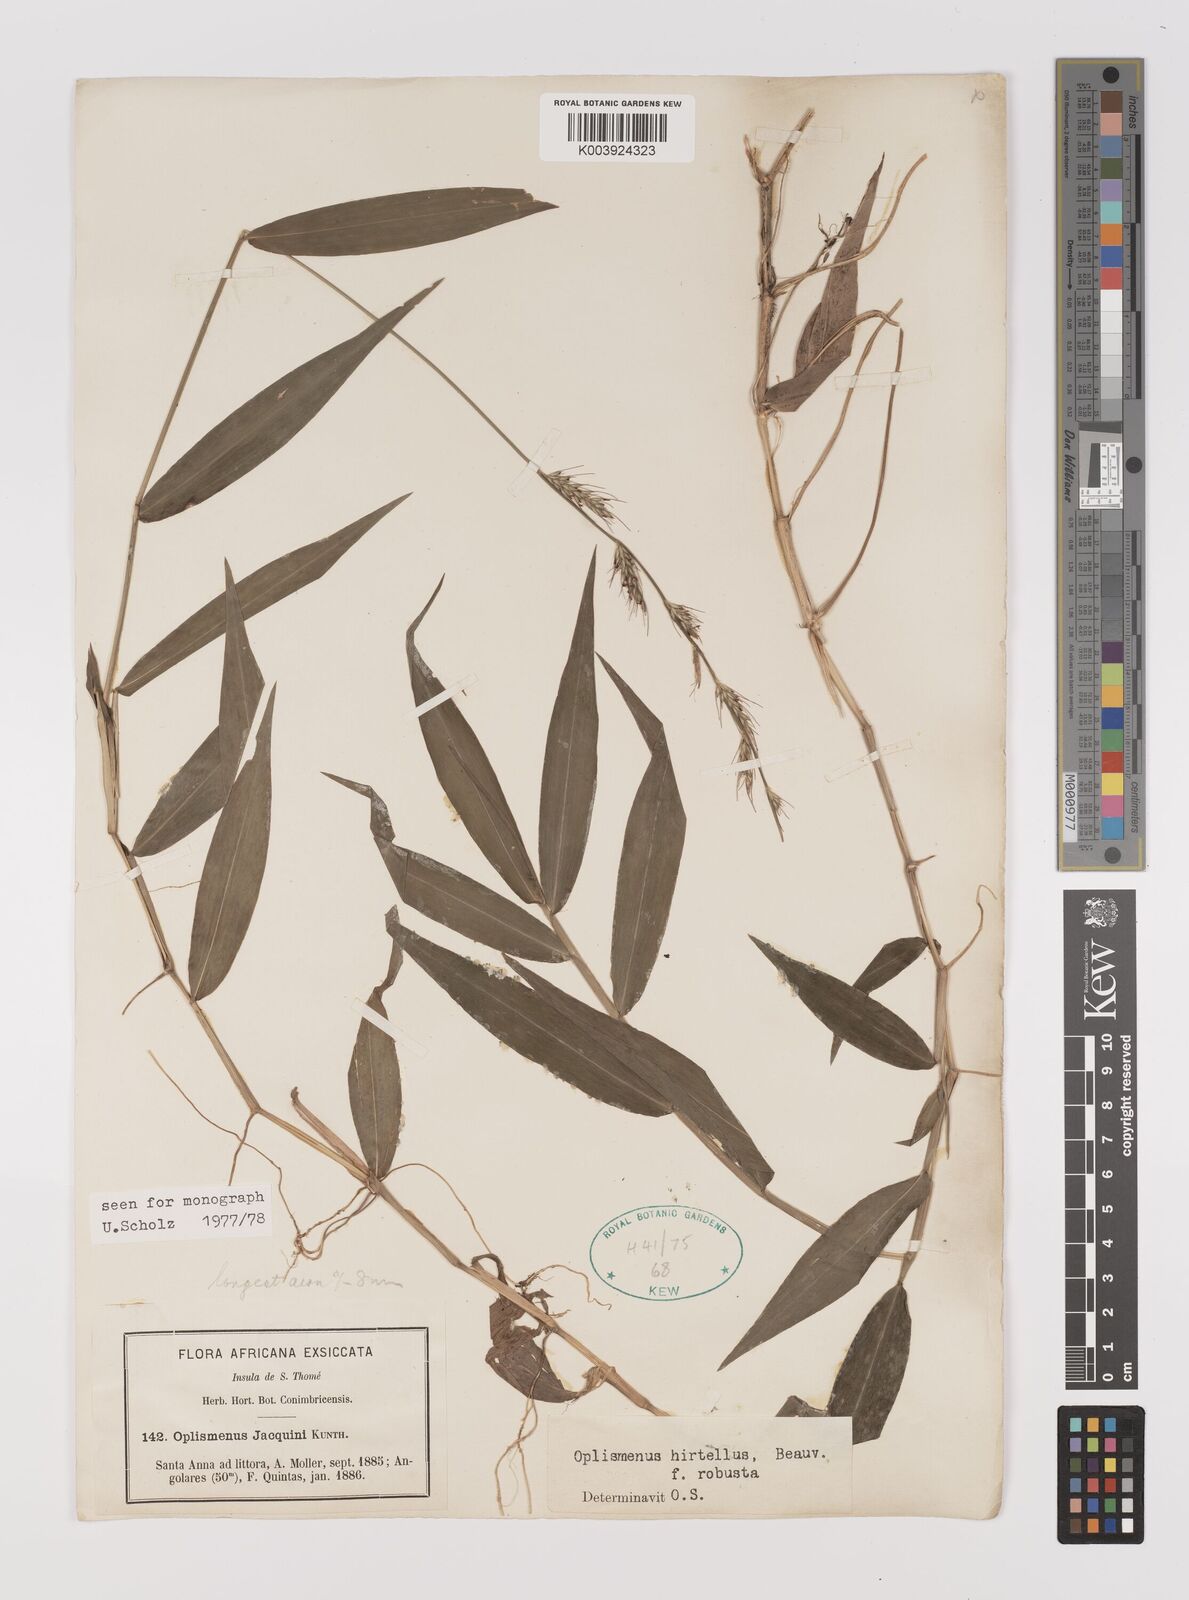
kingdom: Plantae
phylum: Tracheophyta
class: Liliopsida
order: Poales
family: Poaceae
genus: Oplismenus
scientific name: Oplismenus hirtellus
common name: Basketgrass
